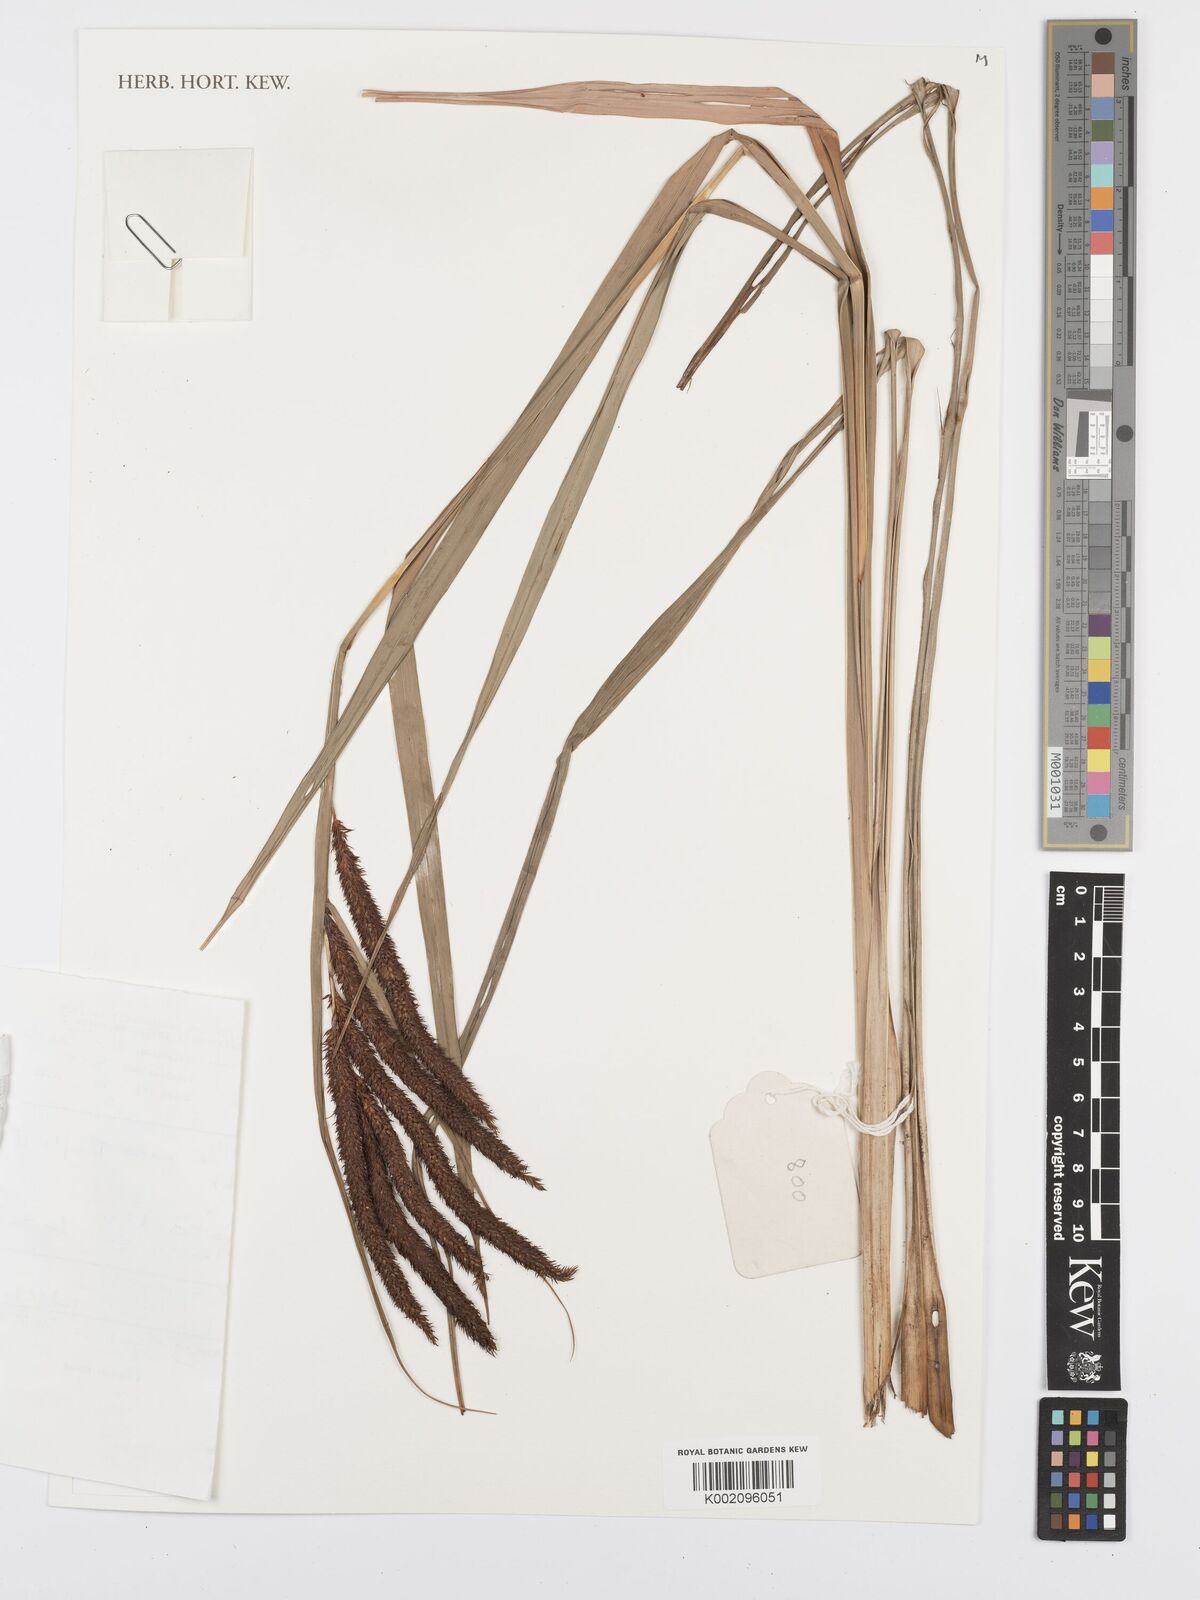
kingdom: Plantae
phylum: Tracheophyta
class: Liliopsida
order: Poales
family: Cyperaceae
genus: Carex
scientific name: Carex bequaertii
